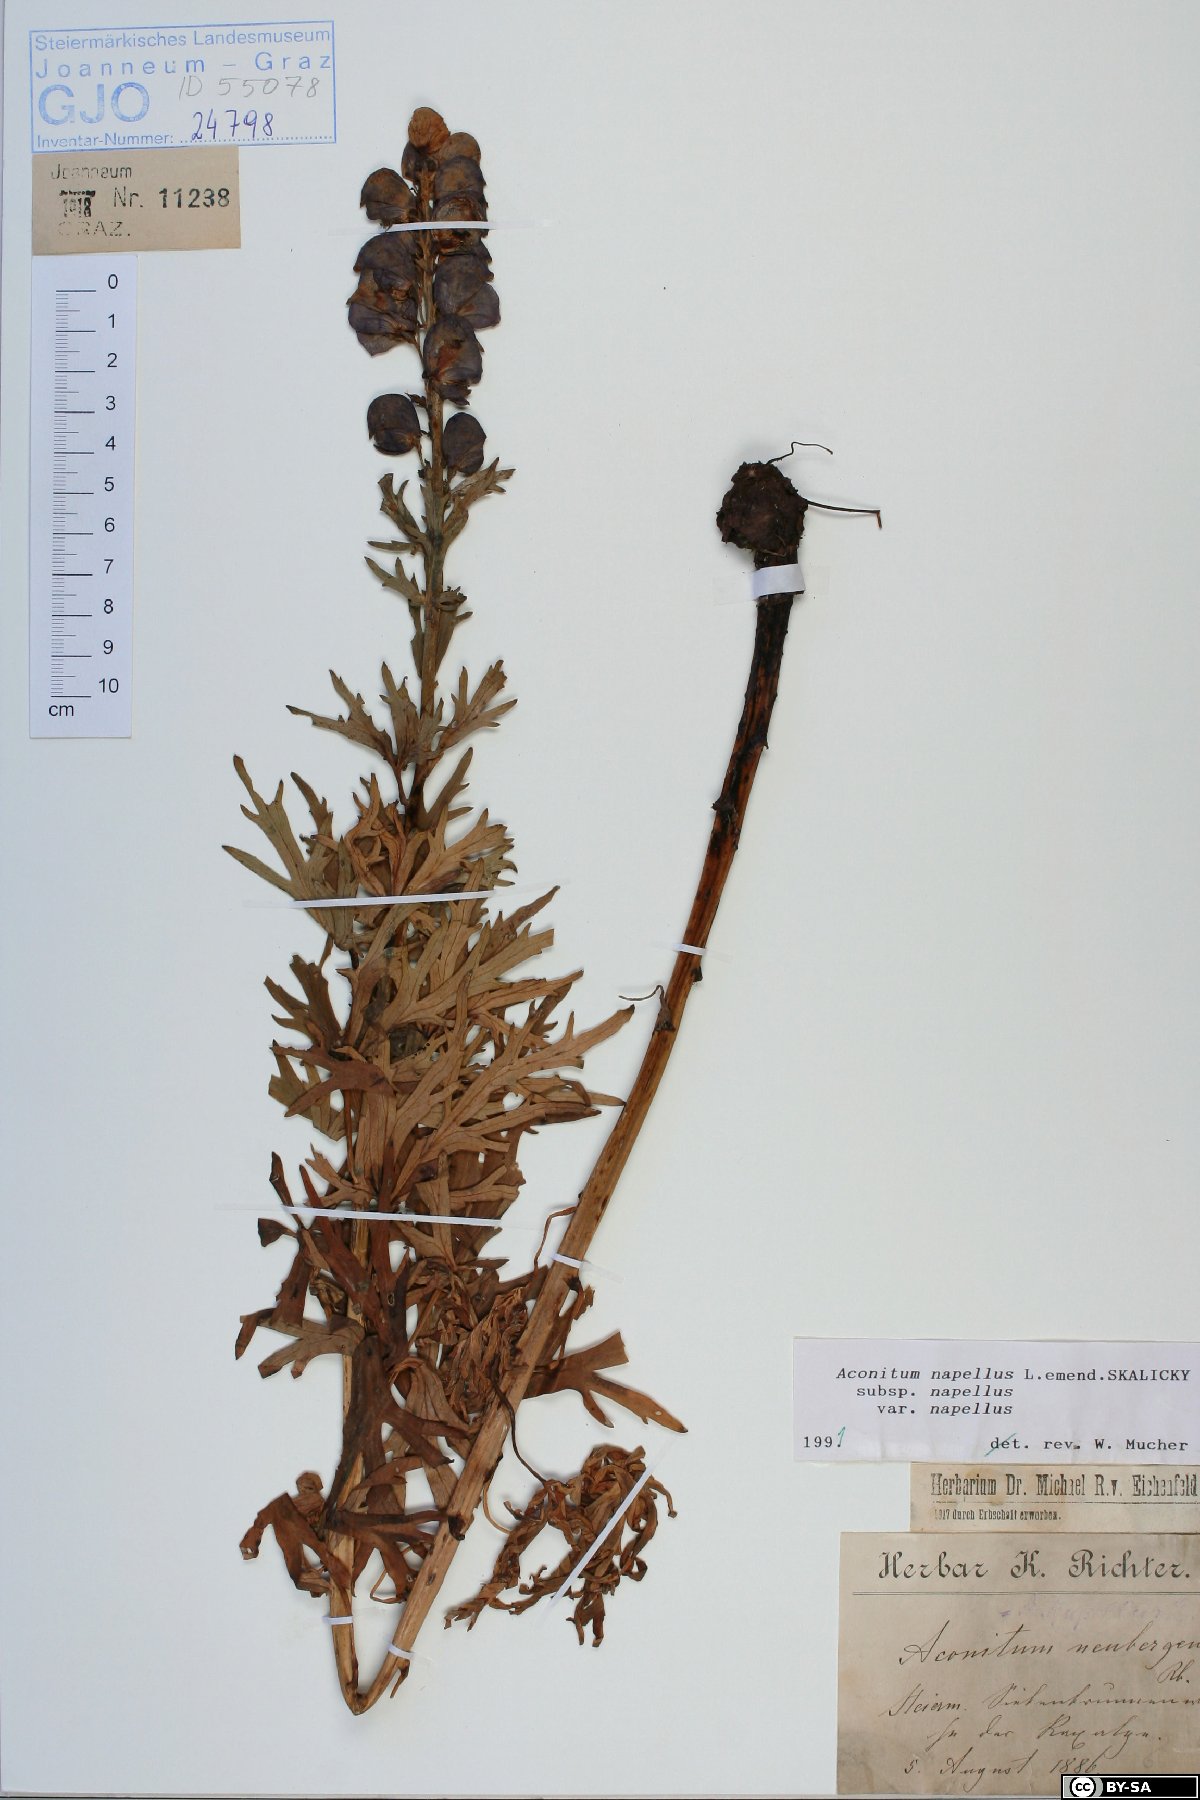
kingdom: Plantae
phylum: Tracheophyta
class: Magnoliopsida
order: Ranunculales
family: Ranunculaceae
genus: Aconitum
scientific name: Aconitum napellus
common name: Garden monkshood
